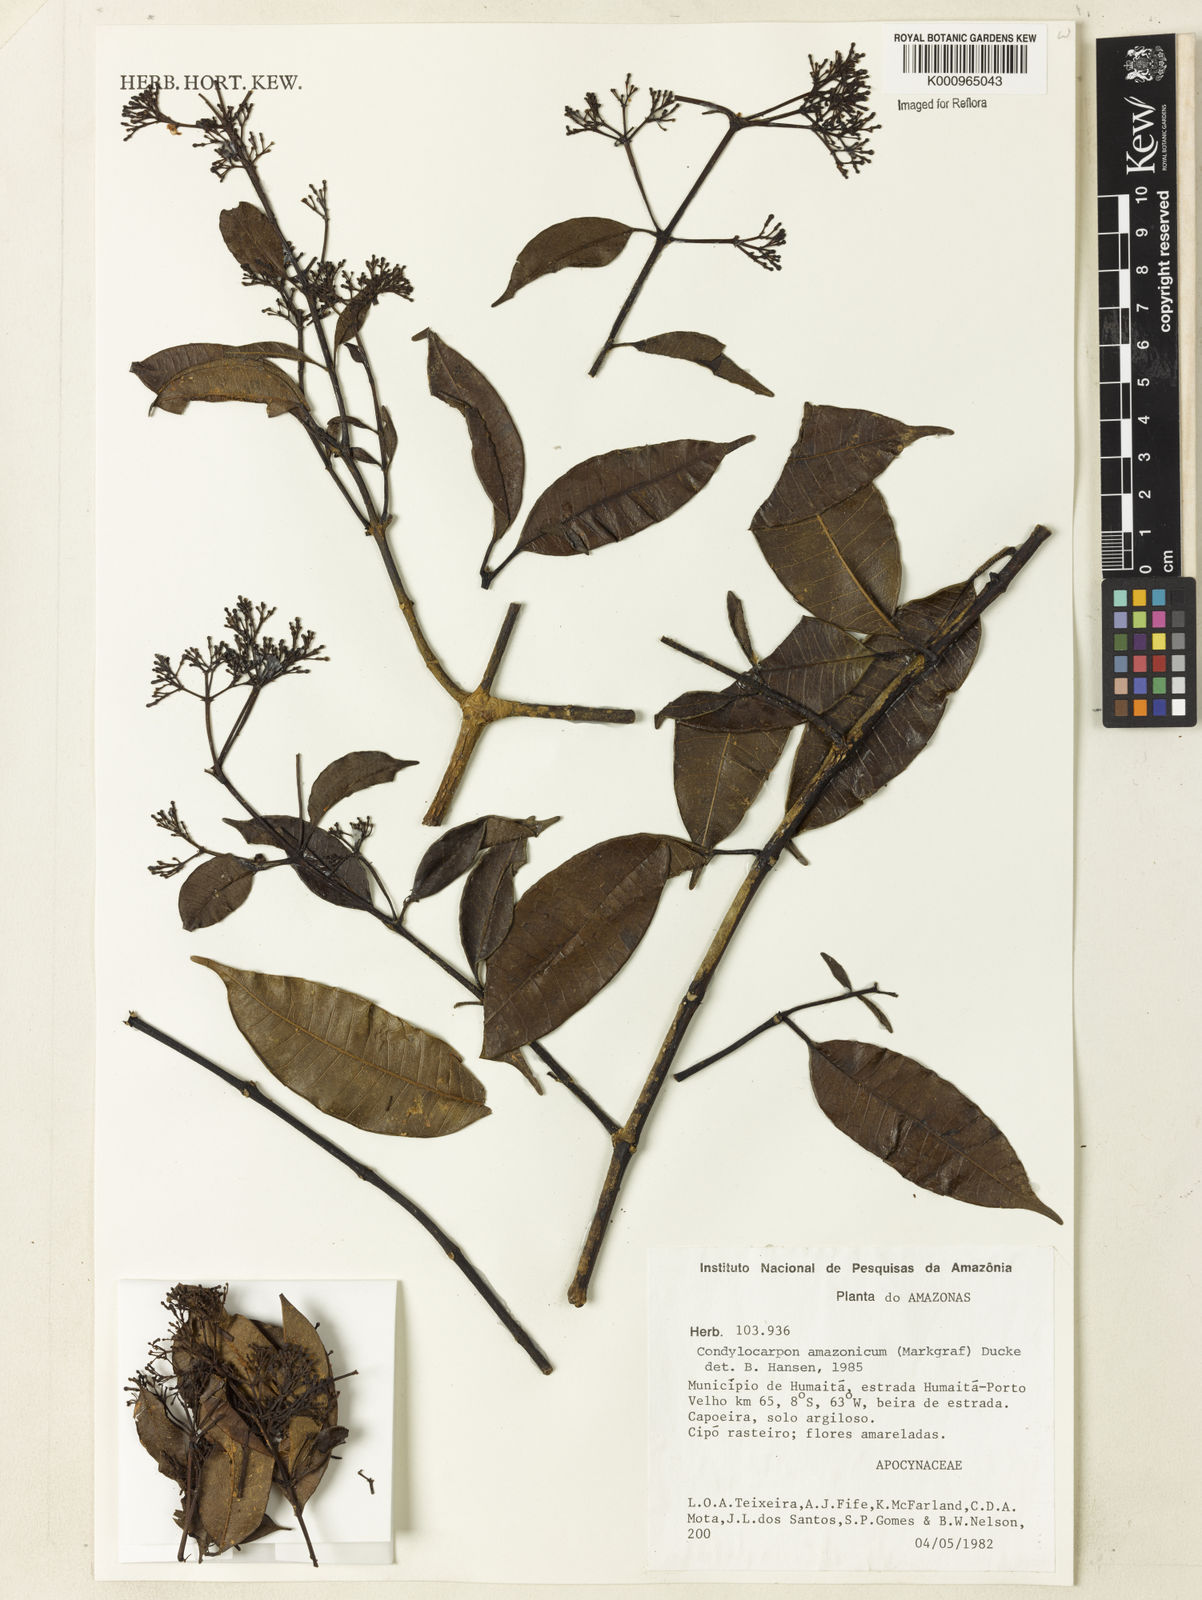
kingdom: Plantae
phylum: Tracheophyta
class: Magnoliopsida
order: Gentianales
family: Apocynaceae
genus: Condylocarpon
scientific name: Condylocarpon amazonicum
